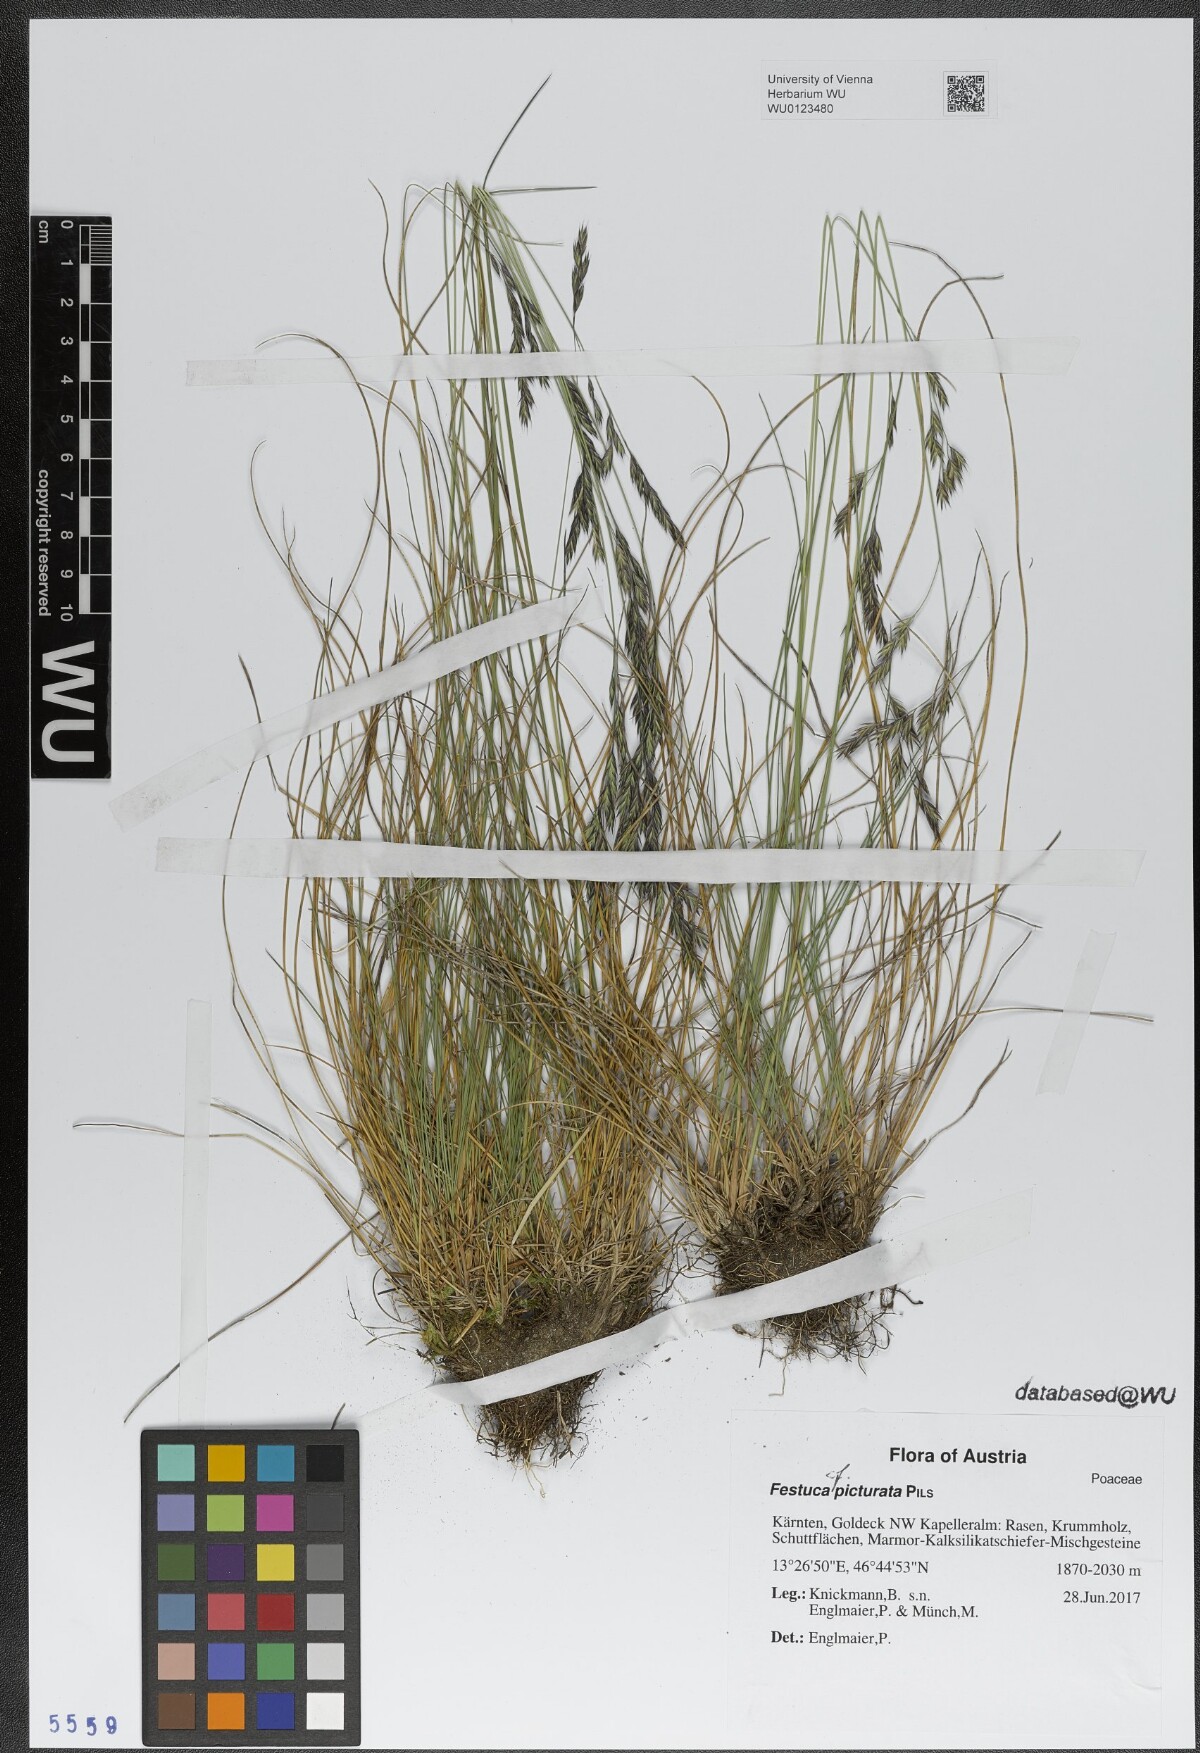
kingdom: Plantae
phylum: Tracheophyta
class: Liliopsida
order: Poales
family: Poaceae
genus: Festuca
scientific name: Festuca picturata
